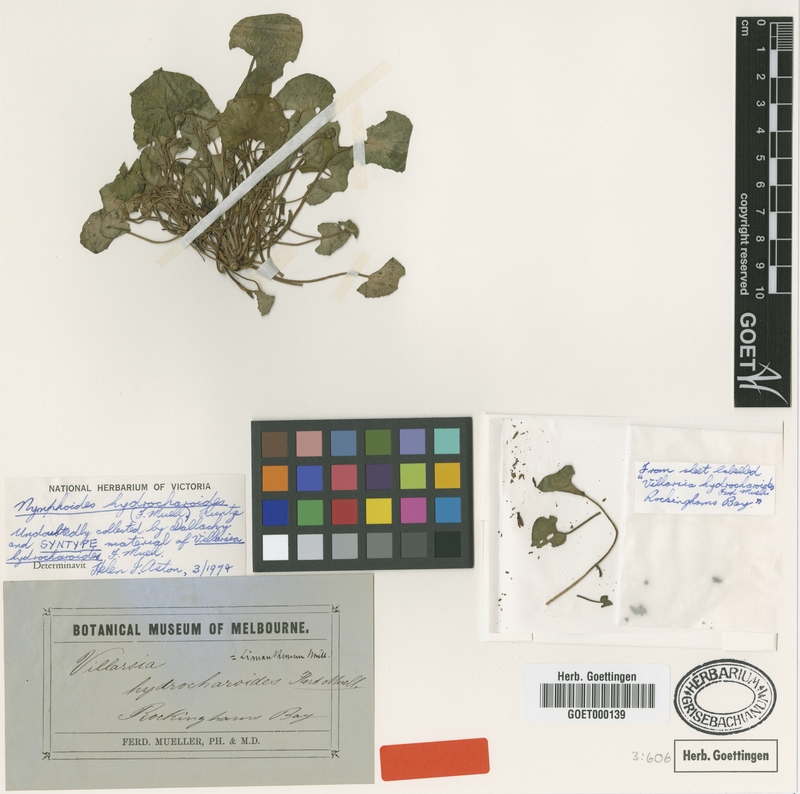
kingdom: Plantae
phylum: Tracheophyta
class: Magnoliopsida
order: Asterales
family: Menyanthaceae
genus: Nymphoides
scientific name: Nymphoides aurantiaca
